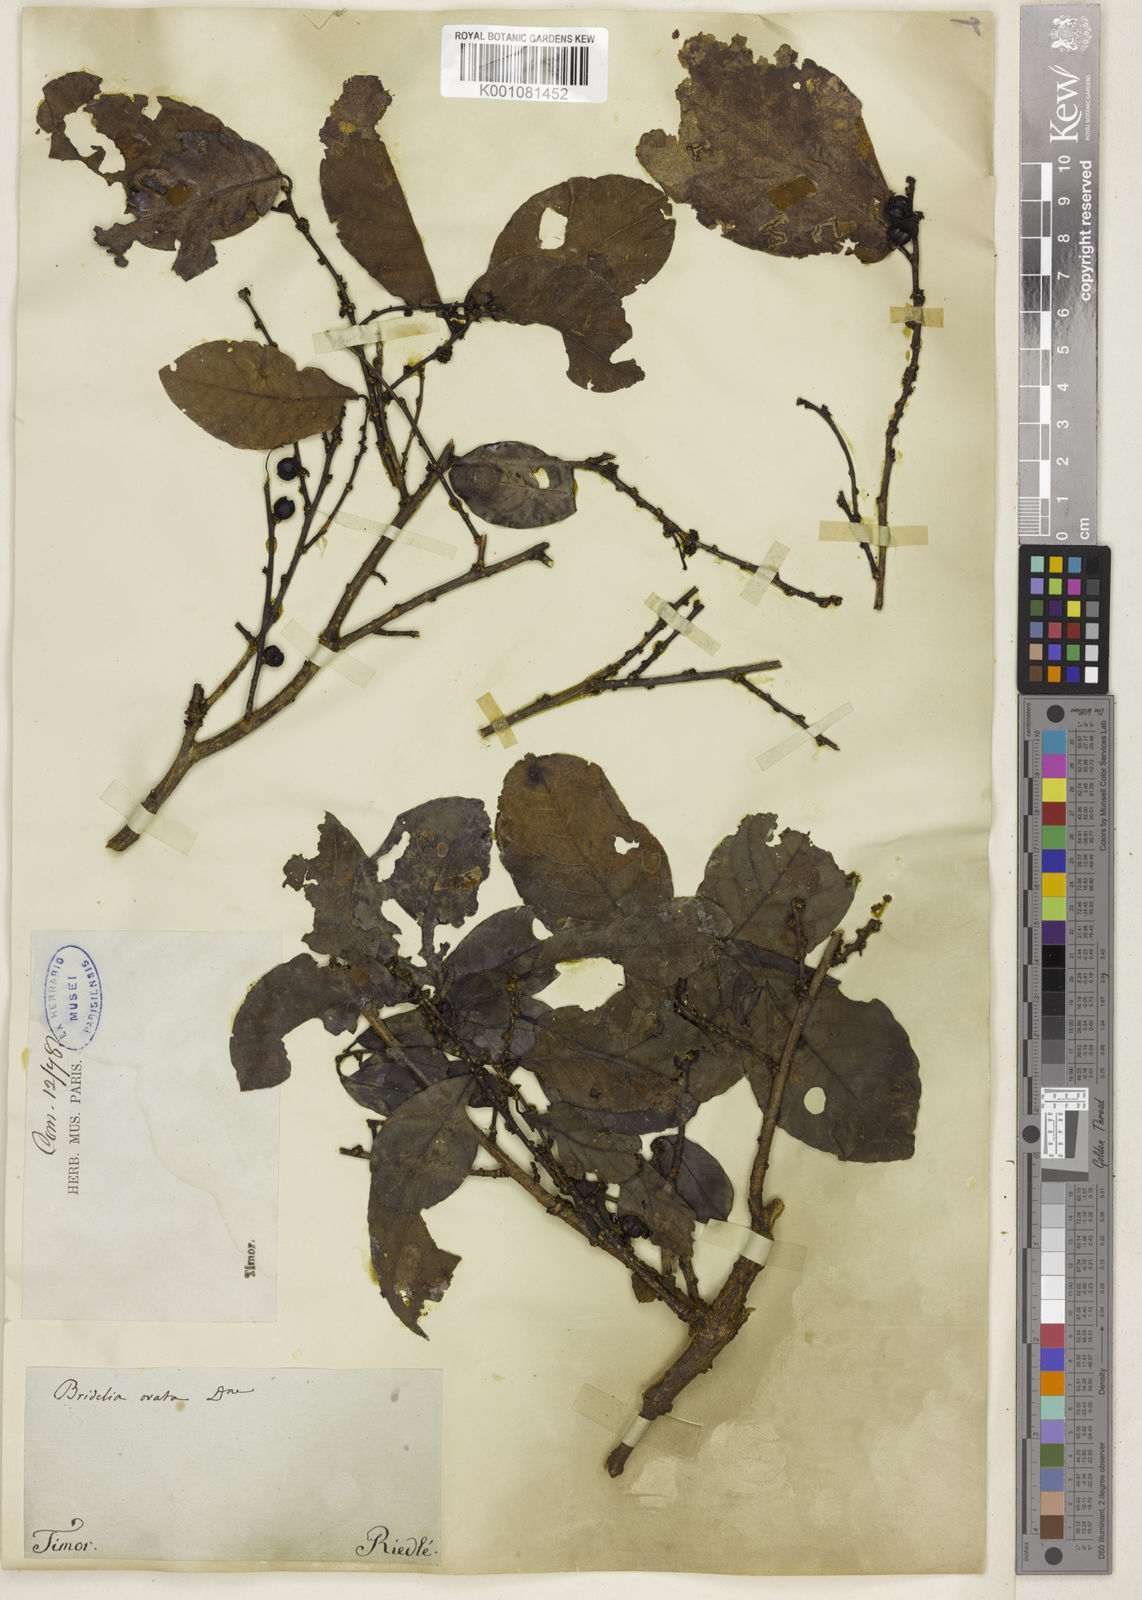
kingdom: Plantae
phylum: Tracheophyta
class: Magnoliopsida
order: Malpighiales
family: Phyllanthaceae
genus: Bridelia
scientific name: Bridelia ovata
